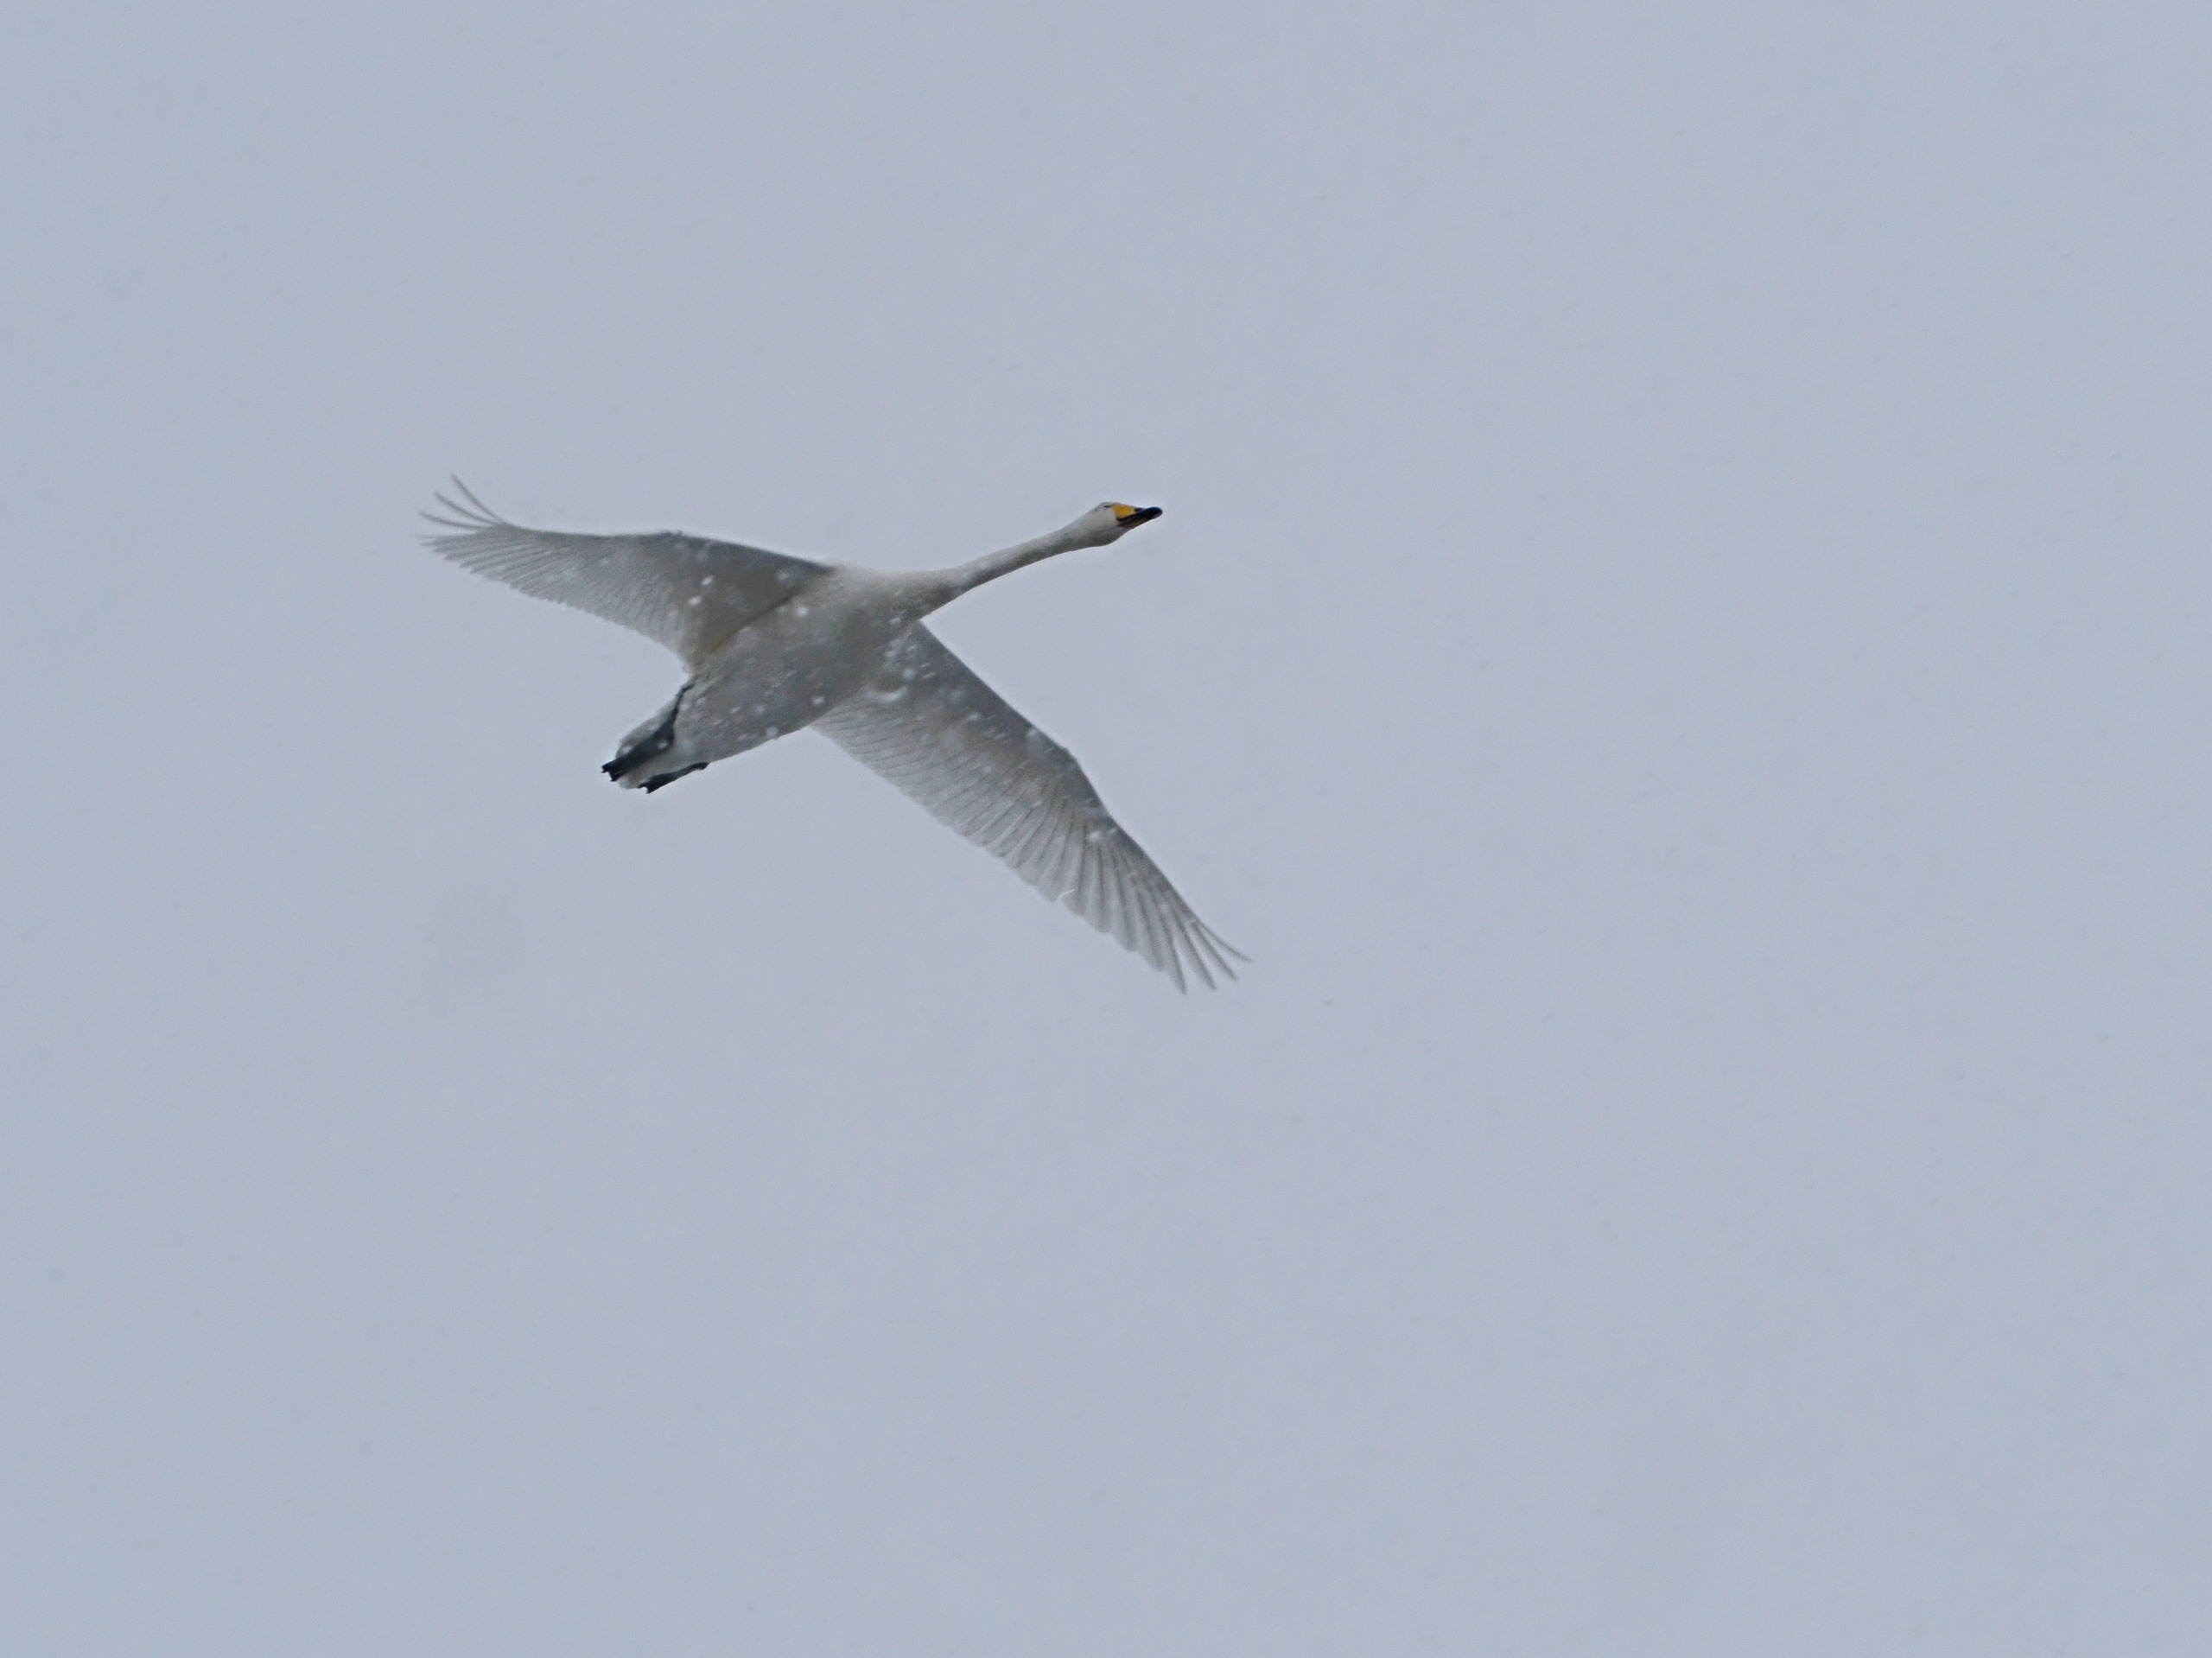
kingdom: Animalia
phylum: Chordata
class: Aves
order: Anseriformes
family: Anatidae
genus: Cygnus
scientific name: Cygnus cygnus
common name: Sangsvane
